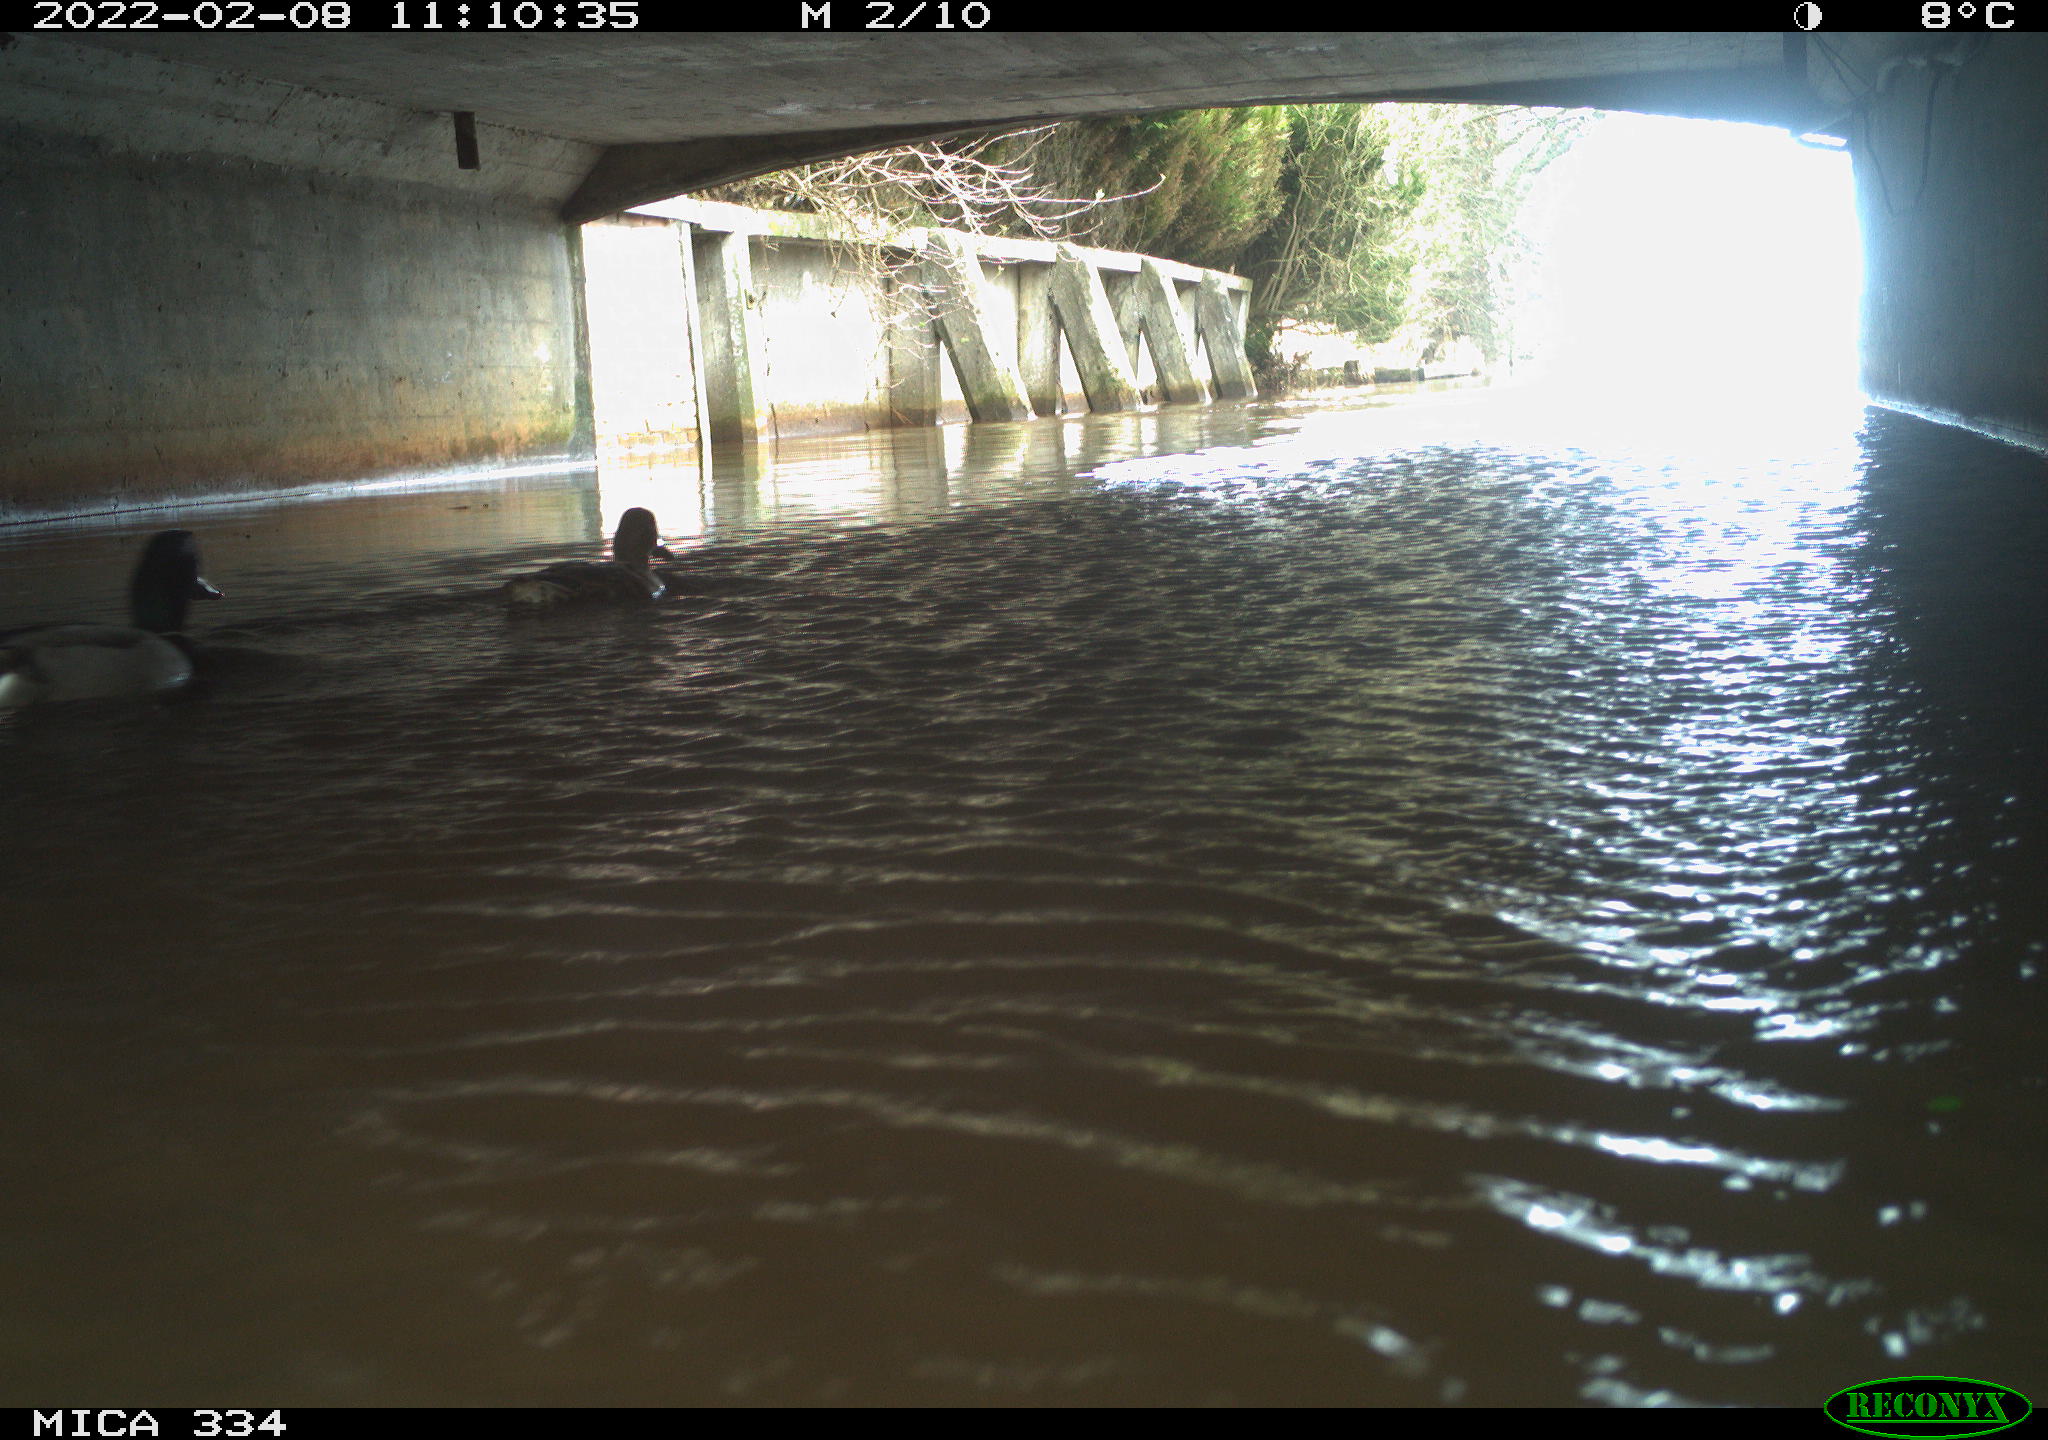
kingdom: Animalia
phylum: Chordata
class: Aves
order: Anseriformes
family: Anatidae
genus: Anas
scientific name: Anas platyrhynchos
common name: Mallard
